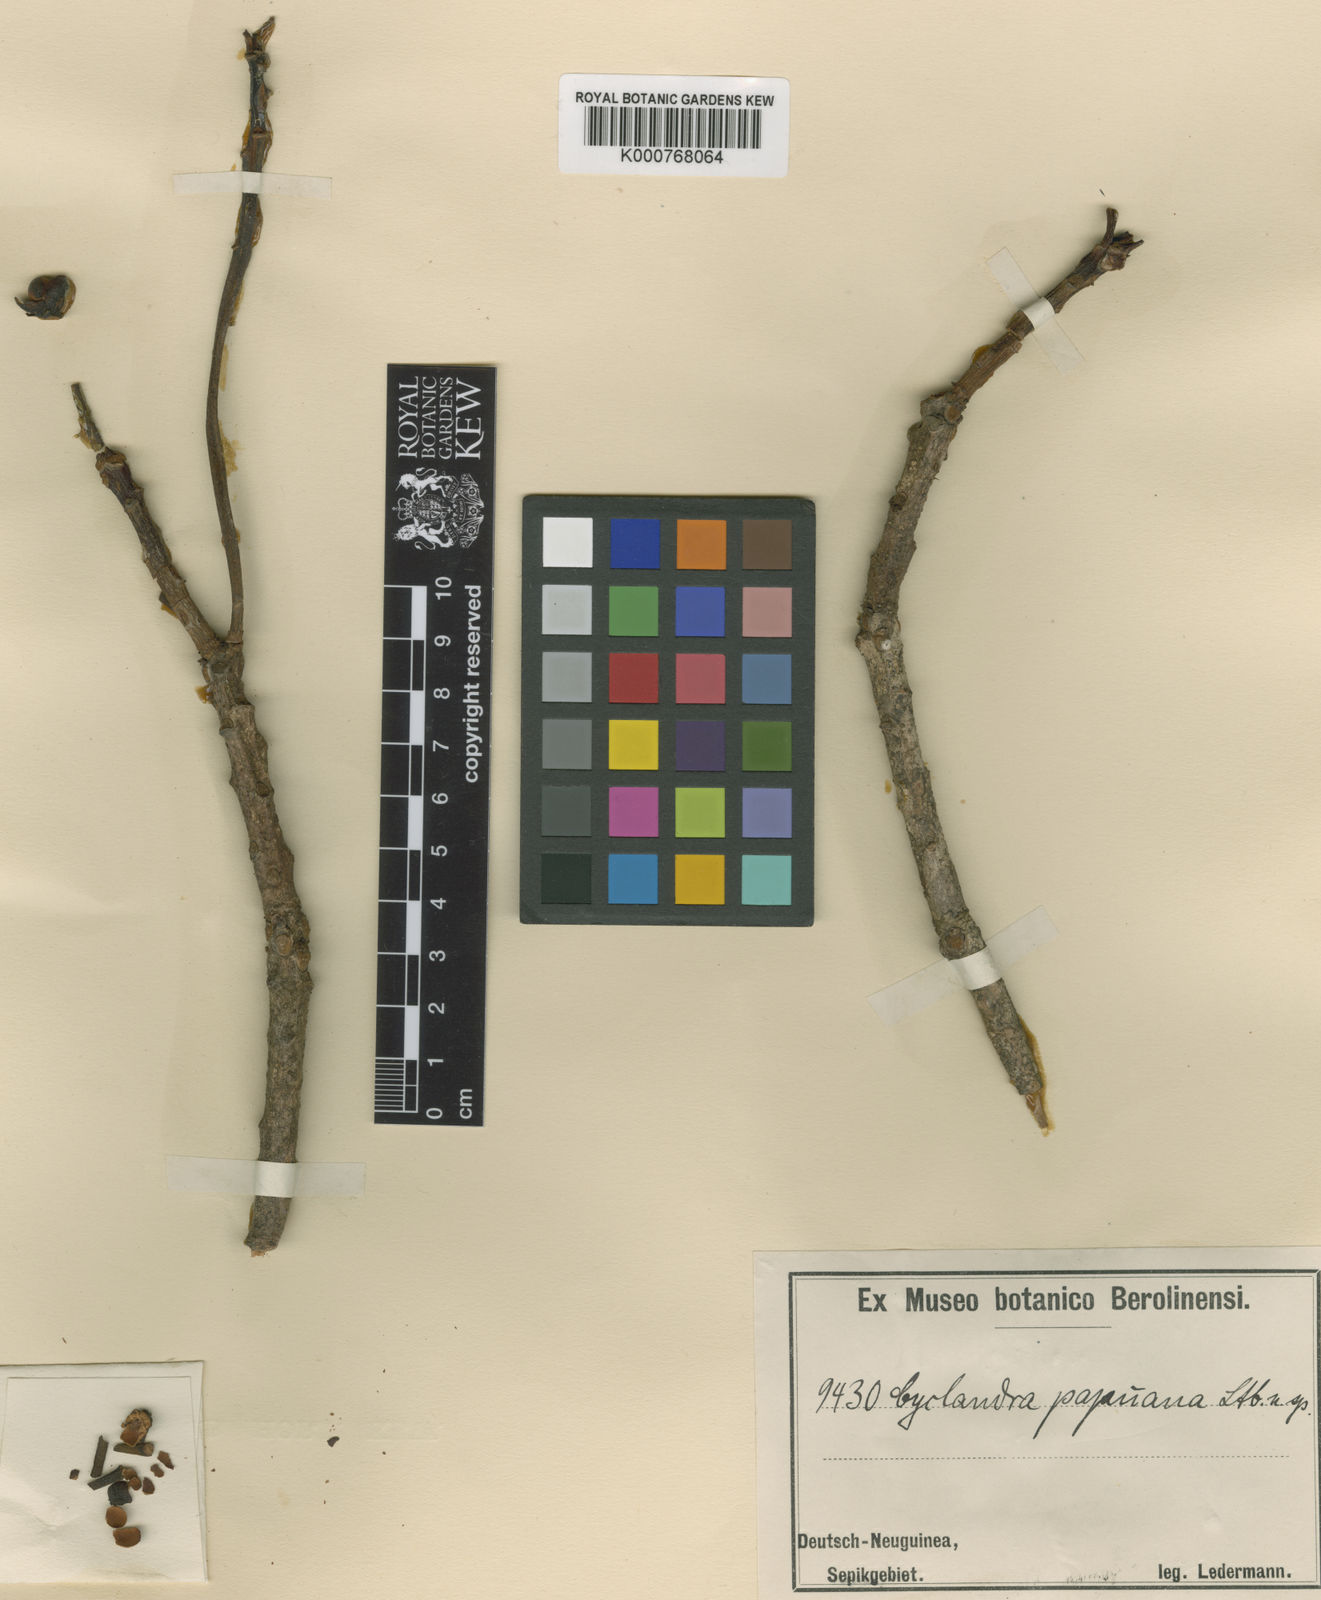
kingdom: Plantae
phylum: Tracheophyta
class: Magnoliopsida
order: Ericales
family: Pentaphylacaceae
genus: Ternstroemia
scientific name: Ternstroemia merrilliana
